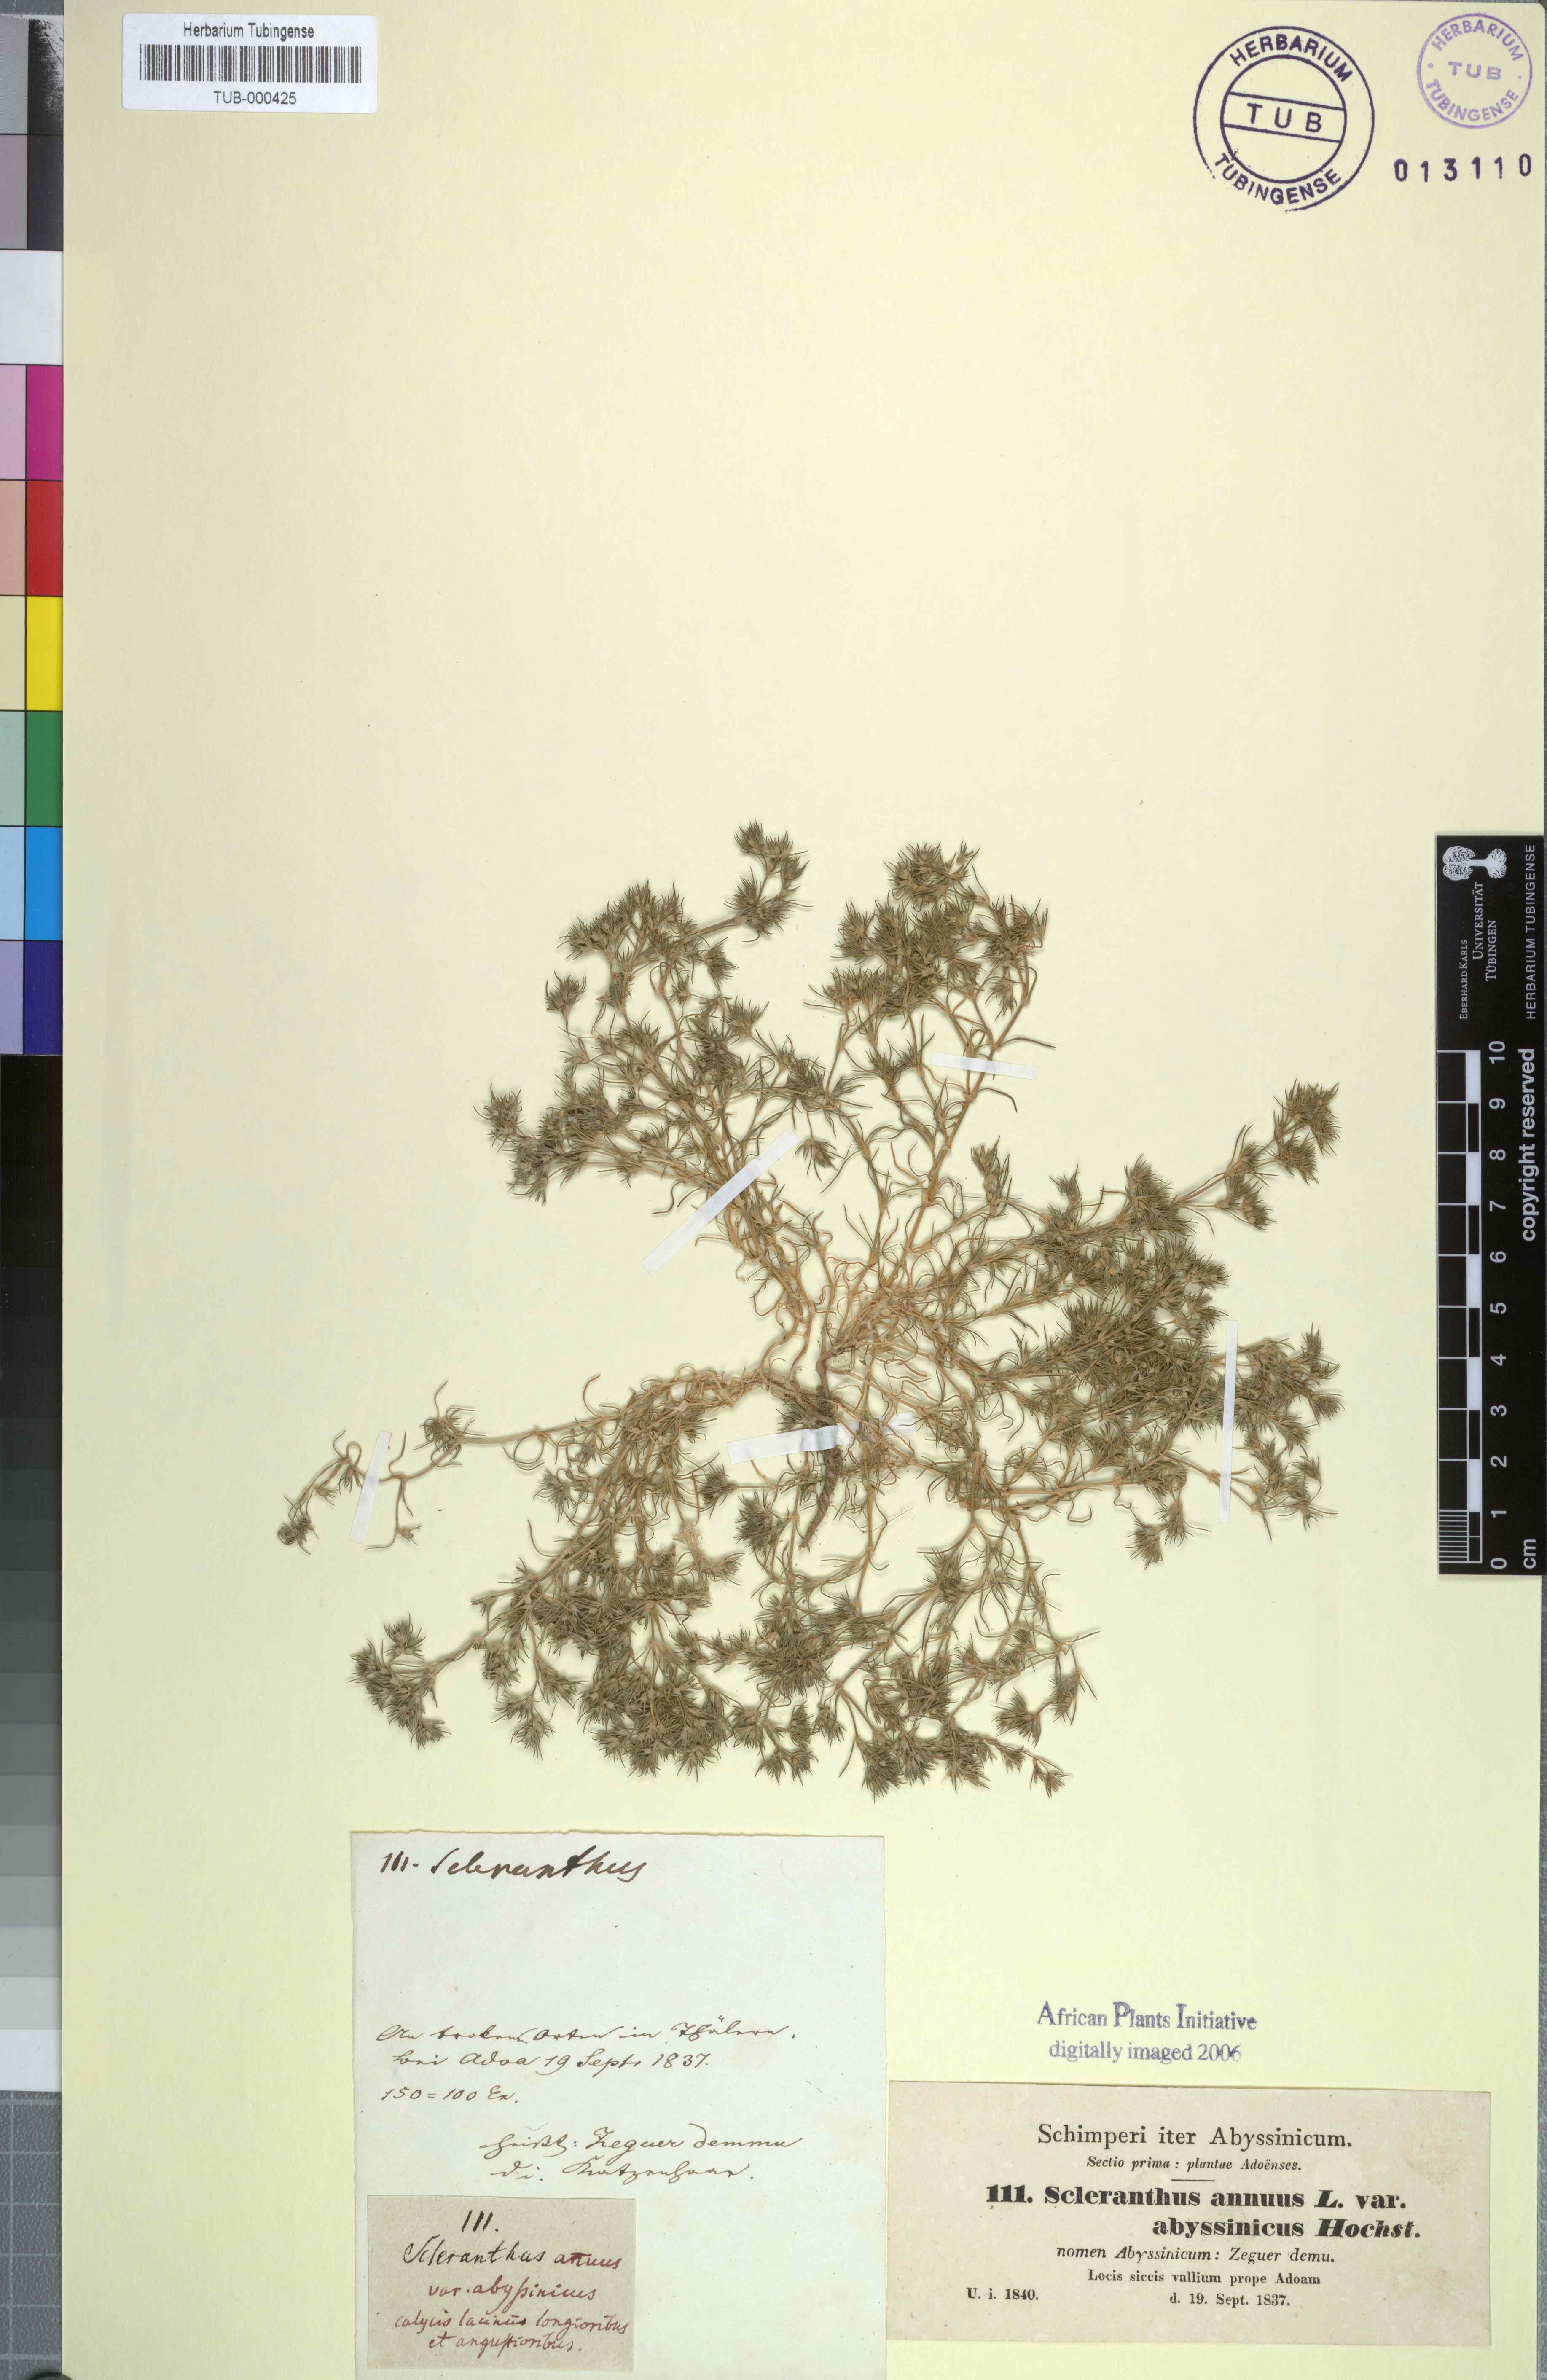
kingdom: Plantae
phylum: Tracheophyta
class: Magnoliopsida
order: Caryophyllales
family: Caryophyllaceae
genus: Scleranthus
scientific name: Scleranthus annuus
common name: Annual knawel
